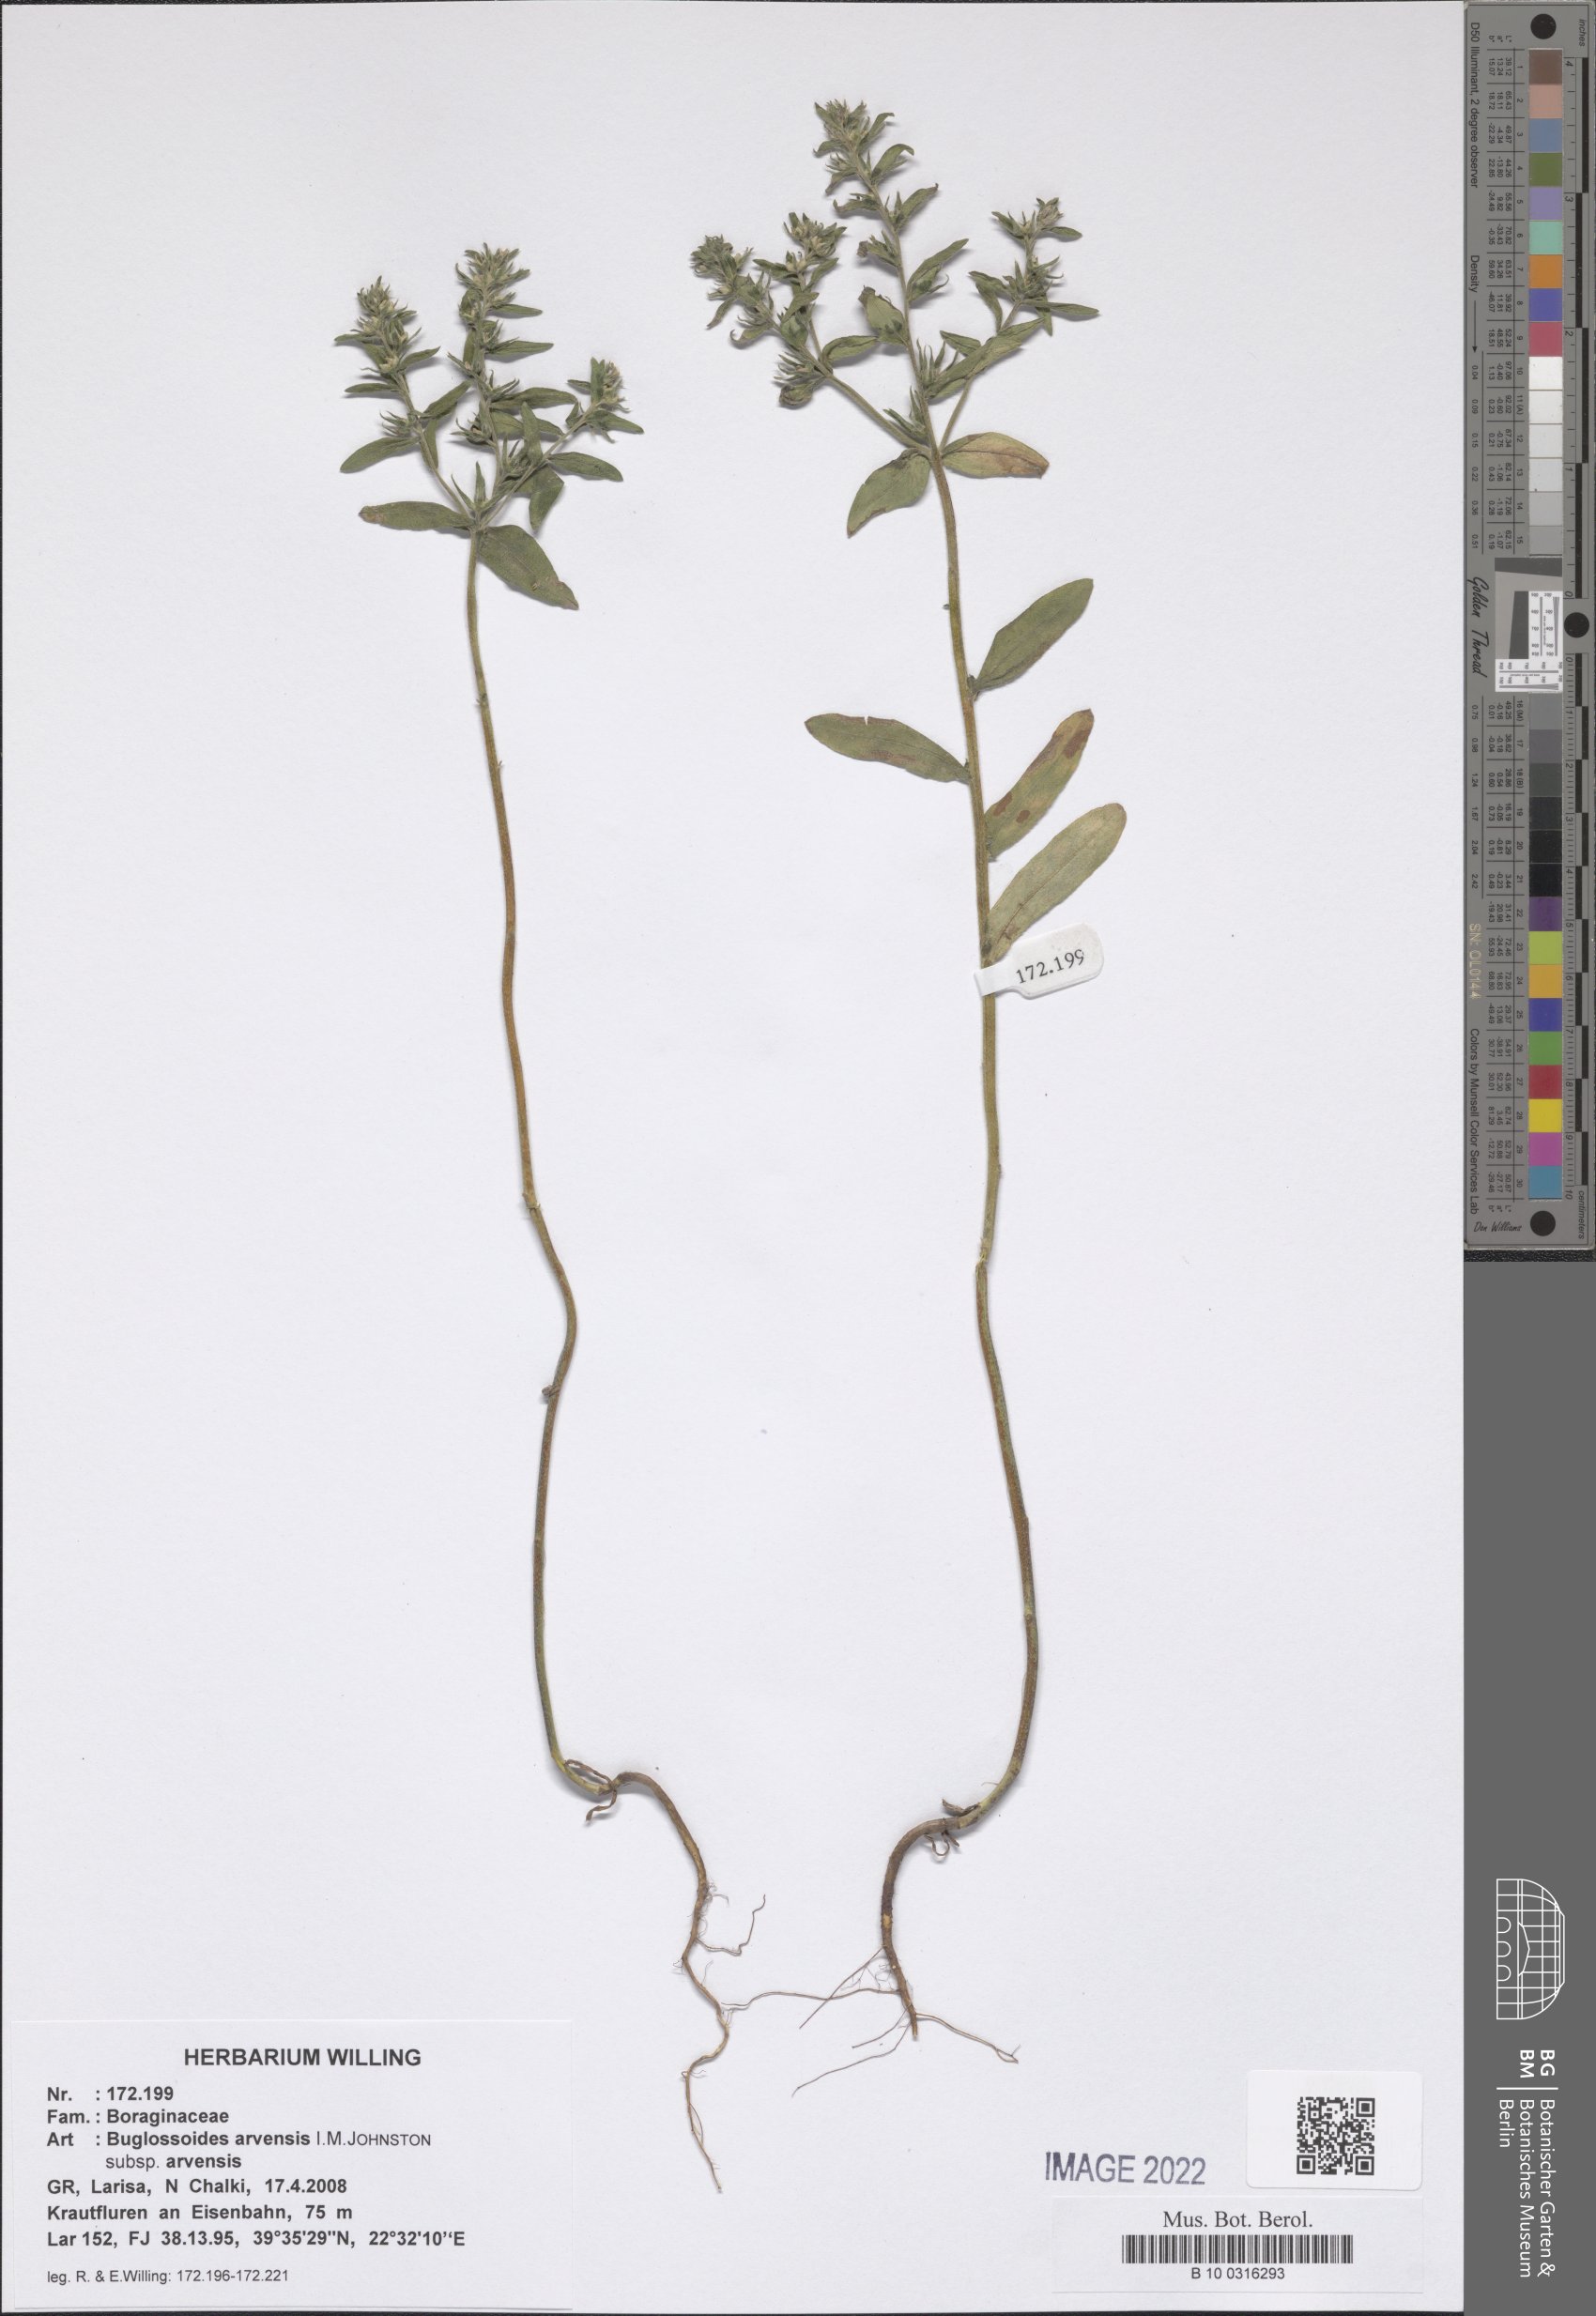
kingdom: Plantae
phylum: Tracheophyta
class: Magnoliopsida
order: Boraginales
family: Boraginaceae
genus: Buglossoides
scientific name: Buglossoides arvensis
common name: Corn gromwell
